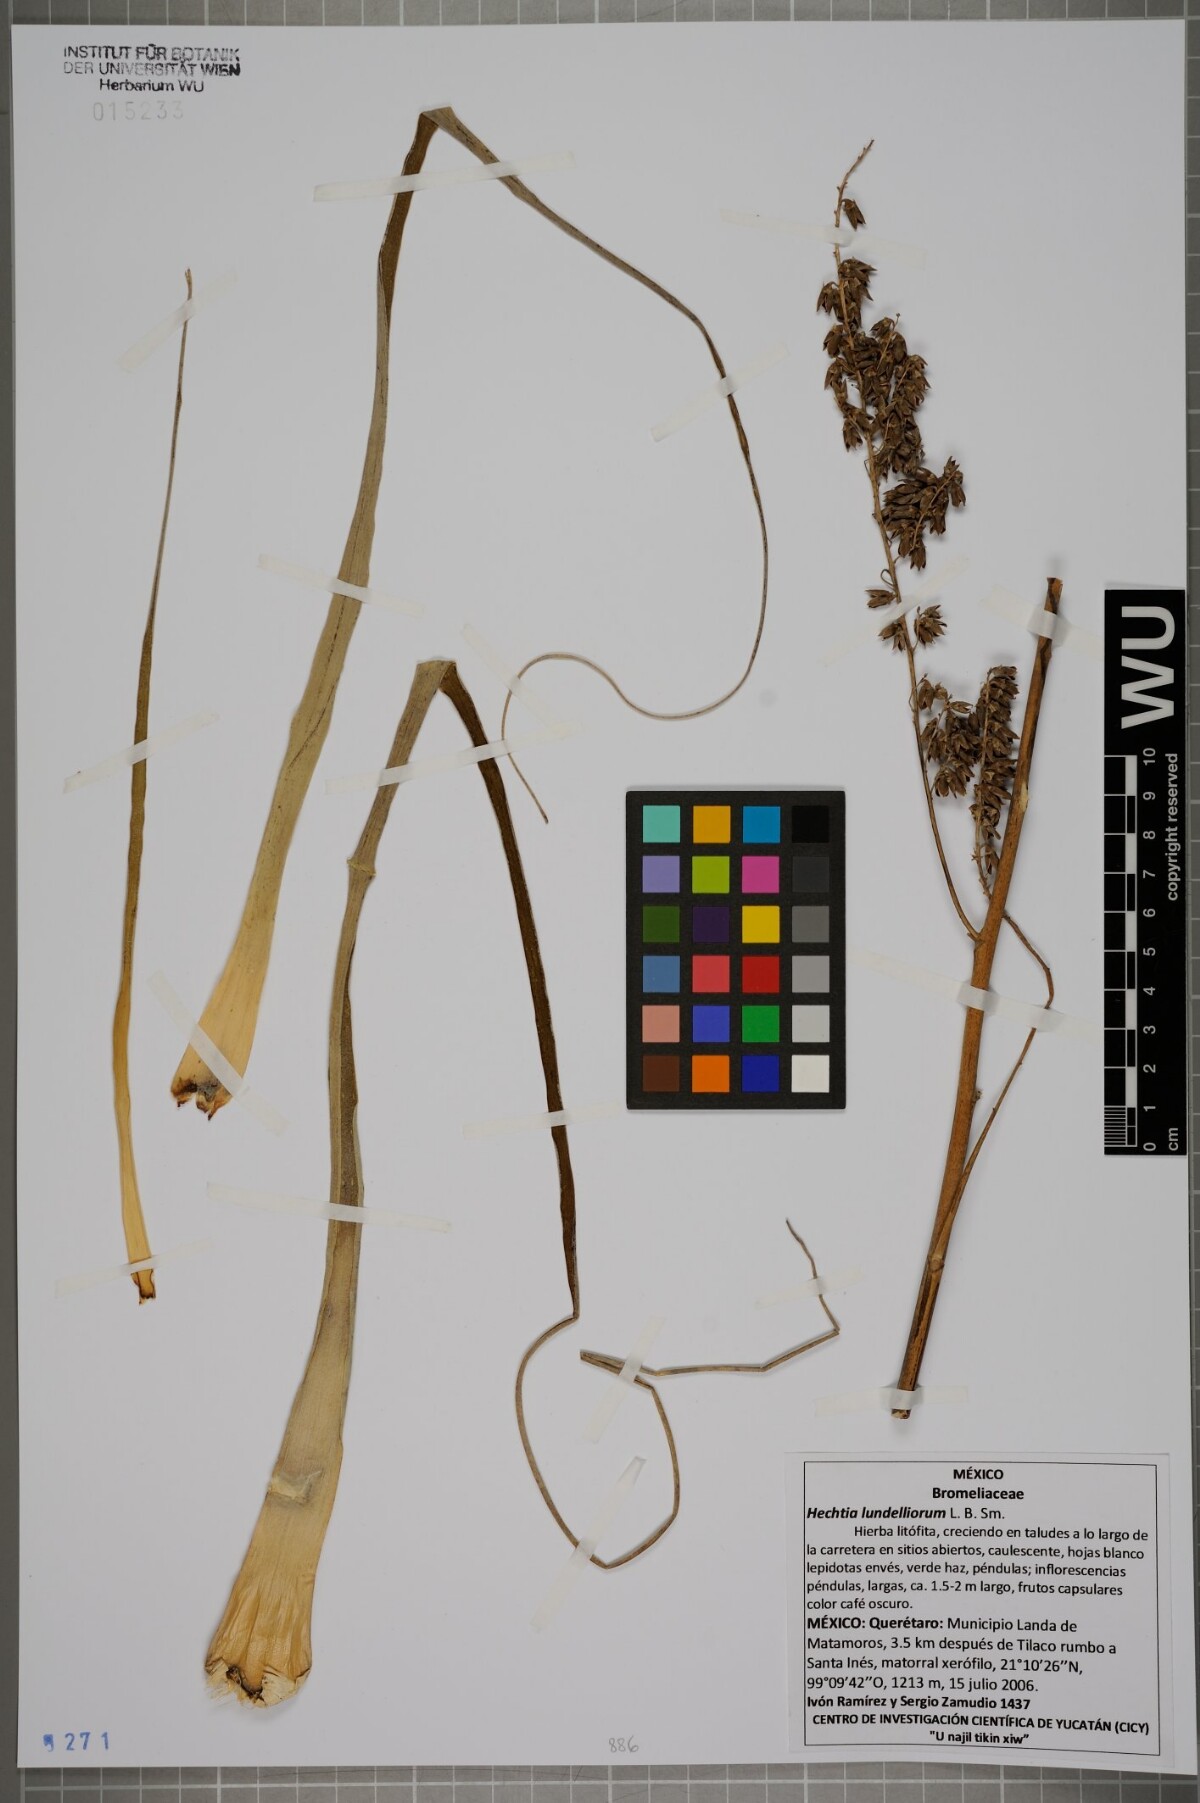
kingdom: Plantae
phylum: Tracheophyta
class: Liliopsida
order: Poales
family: Bromeliaceae
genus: Hechtia
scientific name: Hechtia lundelliorum
